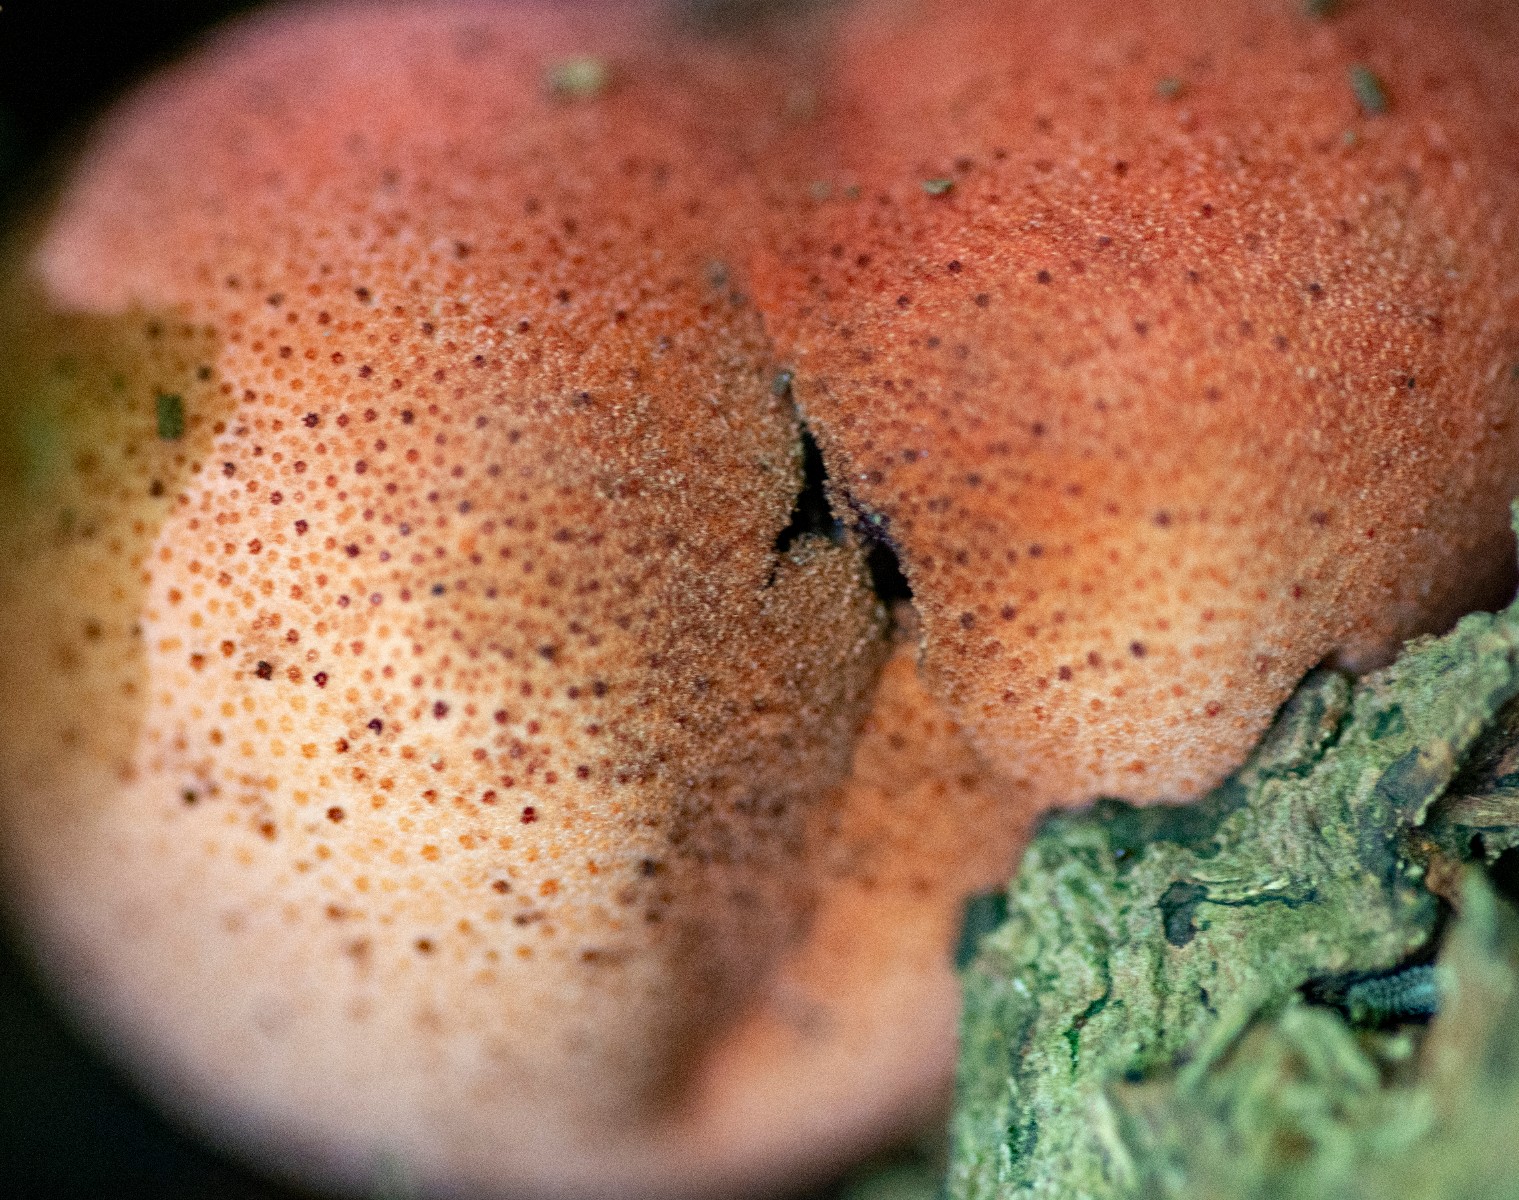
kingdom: Fungi
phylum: Basidiomycota
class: Agaricomycetes
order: Agaricales
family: Fistulinaceae
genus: Fistulina
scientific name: Fistulina hepatica
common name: oksetunge
